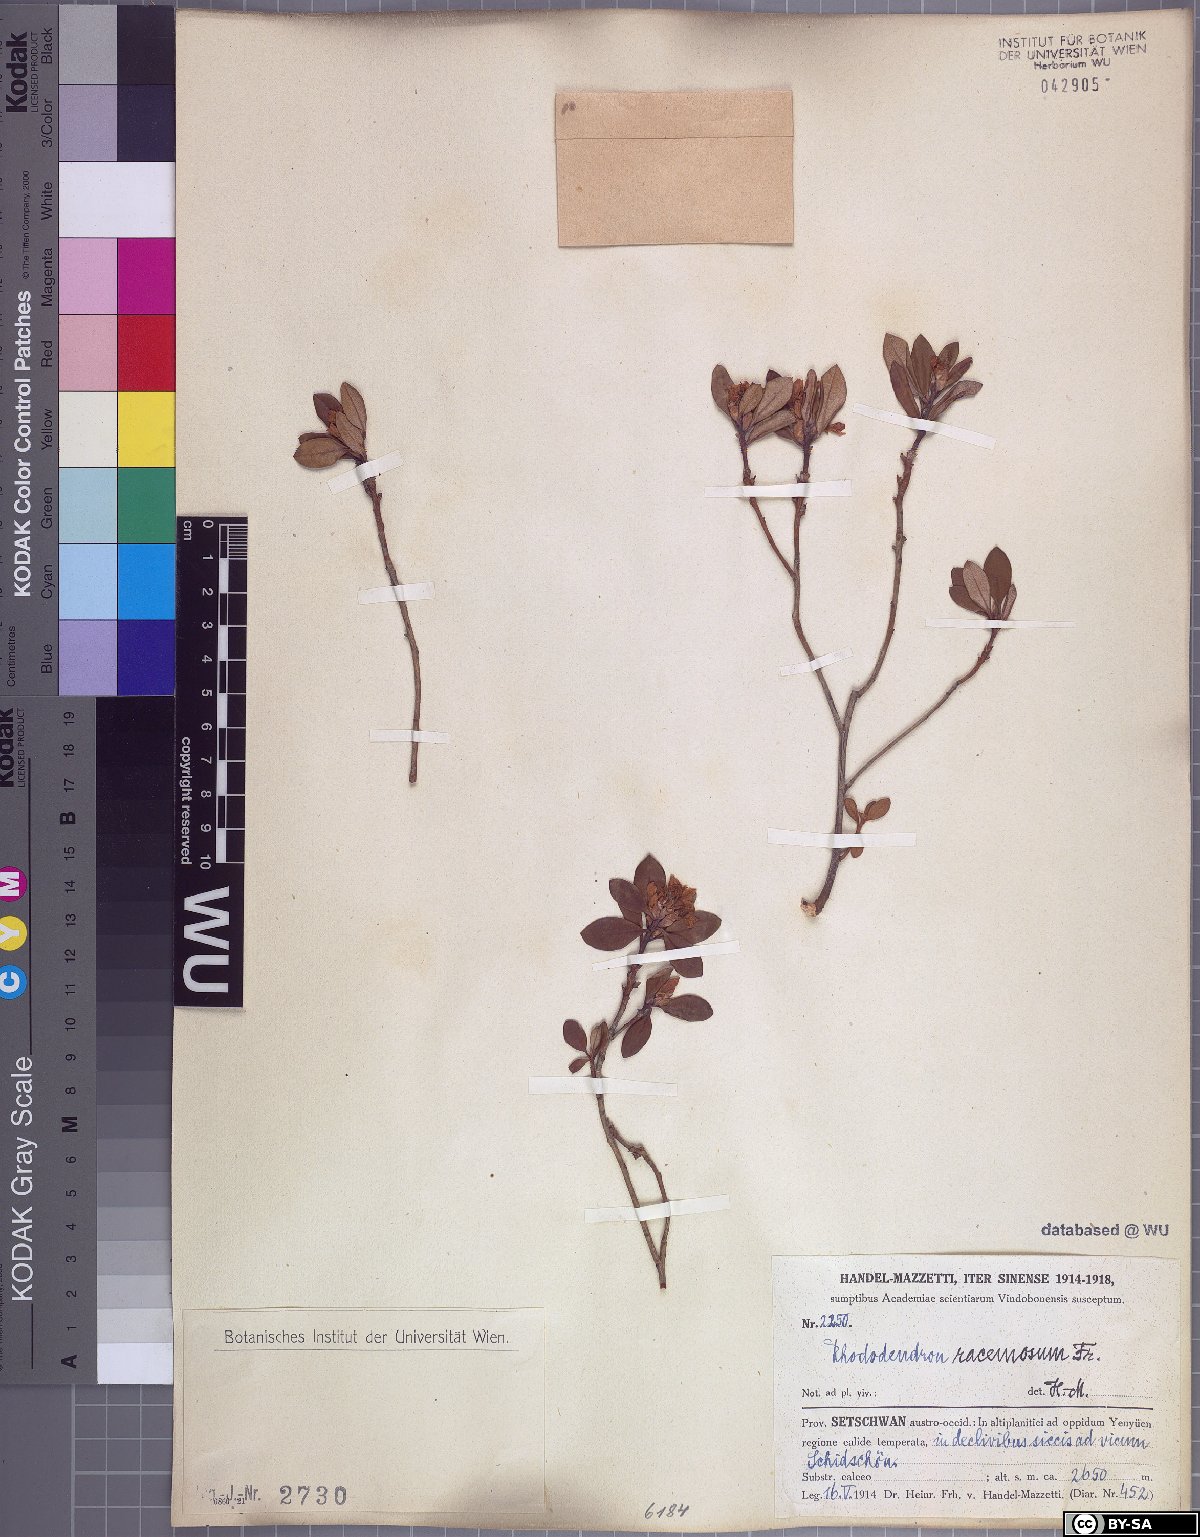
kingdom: Plantae
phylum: Tracheophyta
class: Magnoliopsida
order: Ericales
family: Ericaceae
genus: Rhododendron
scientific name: Rhododendron racemosum
